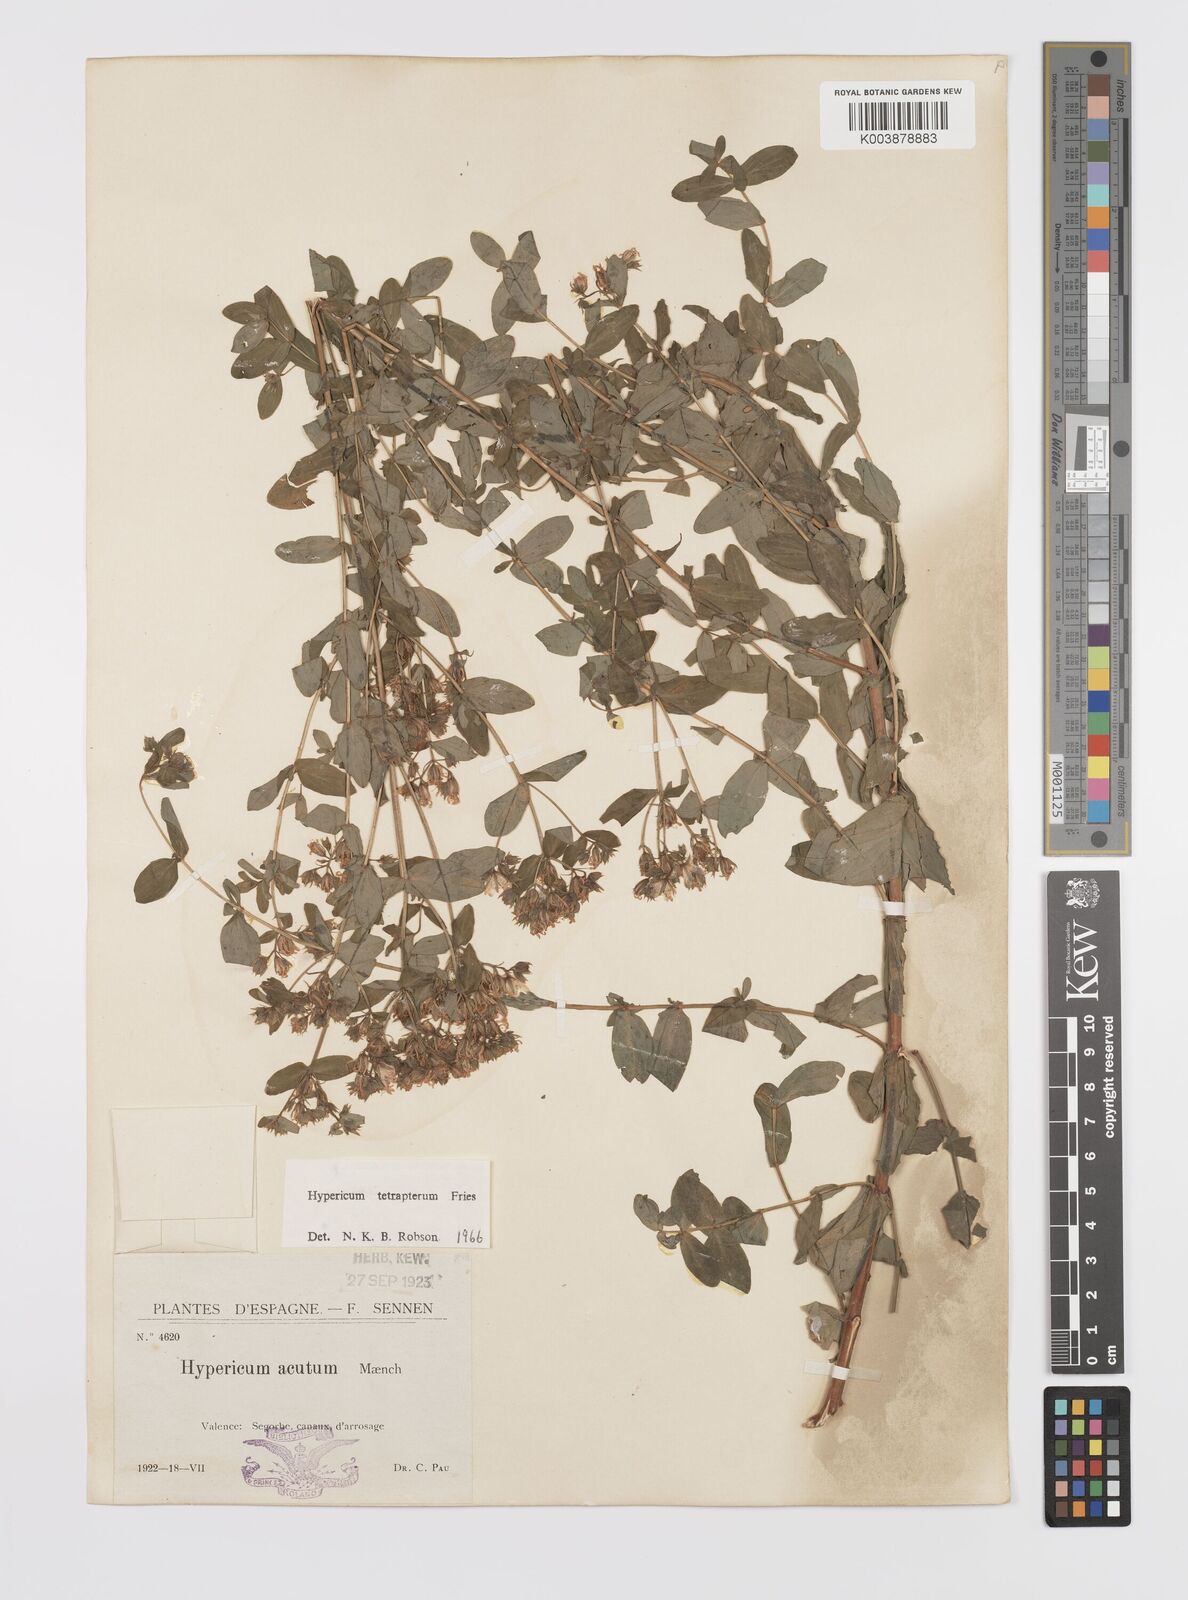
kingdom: Plantae
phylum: Tracheophyta
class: Magnoliopsida
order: Malpighiales
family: Hypericaceae
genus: Hypericum
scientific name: Hypericum tetrapterum
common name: Square-stalked st. john's-wort
